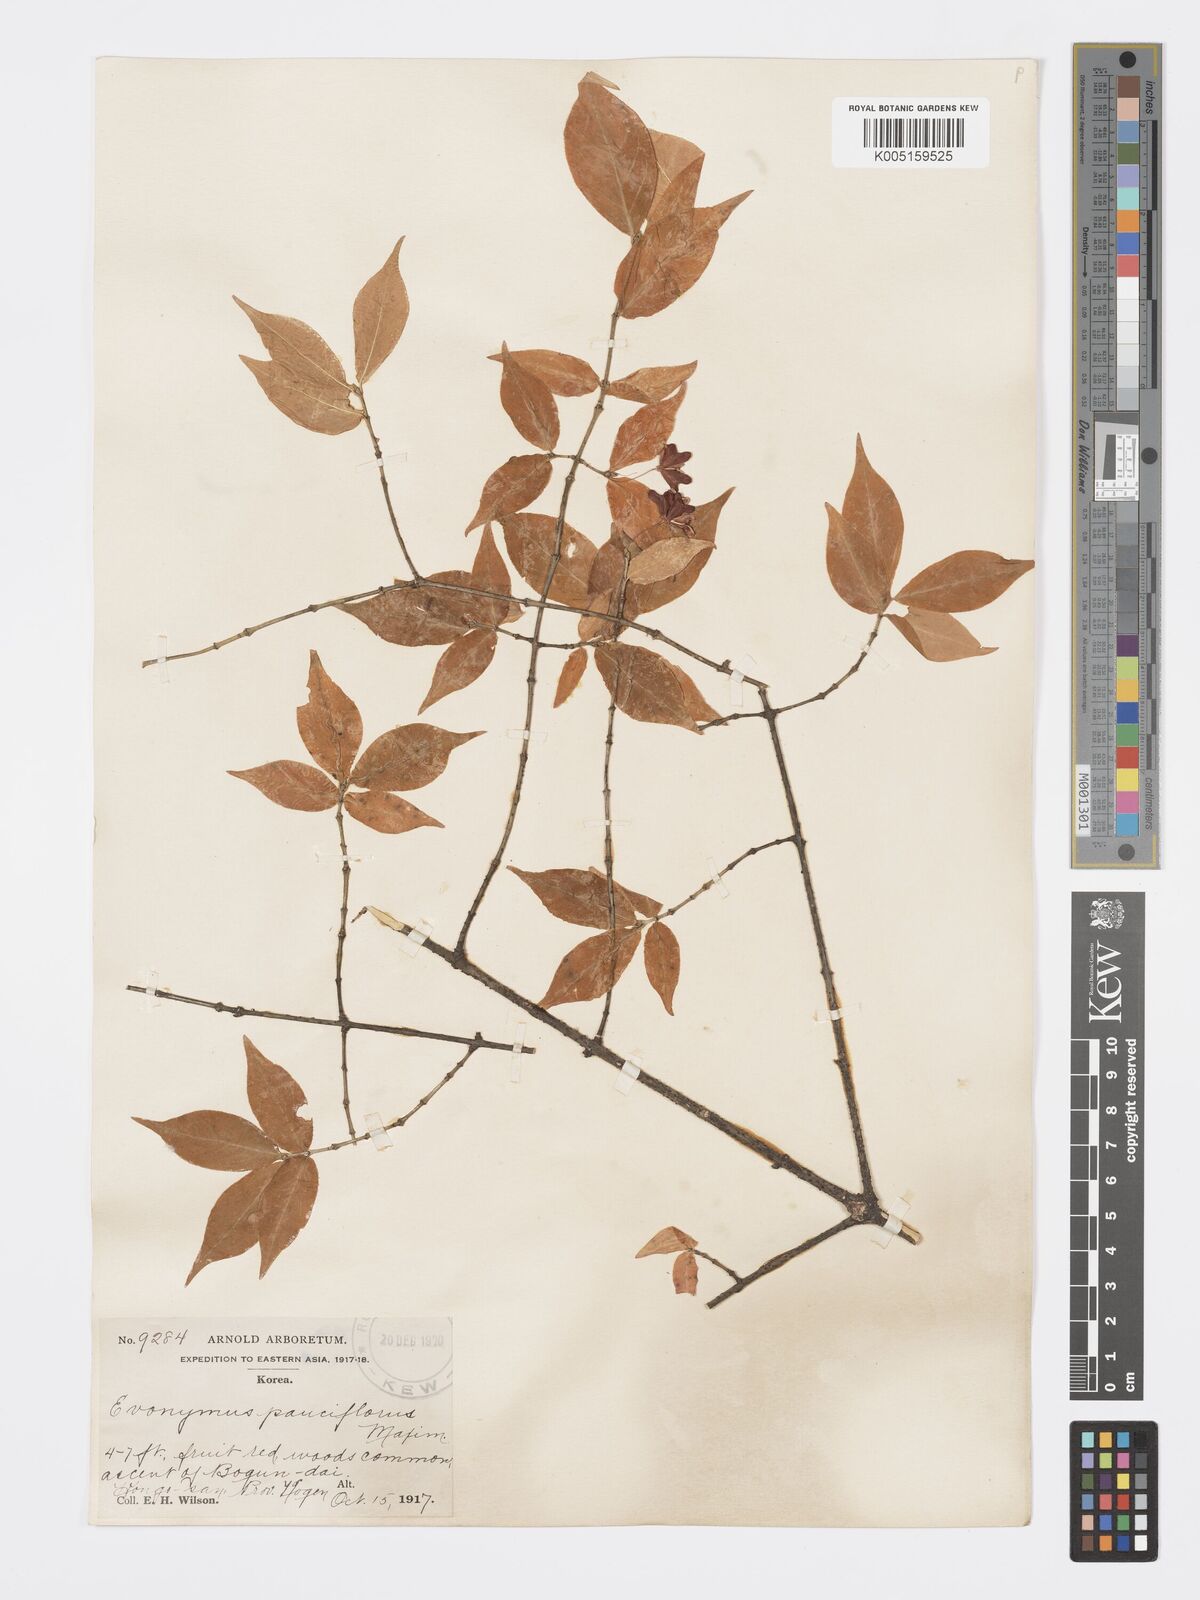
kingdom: Plantae
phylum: Tracheophyta
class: Magnoliopsida
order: Celastrales
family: Celastraceae
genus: Euonymus
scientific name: Euonymus verrucosus
